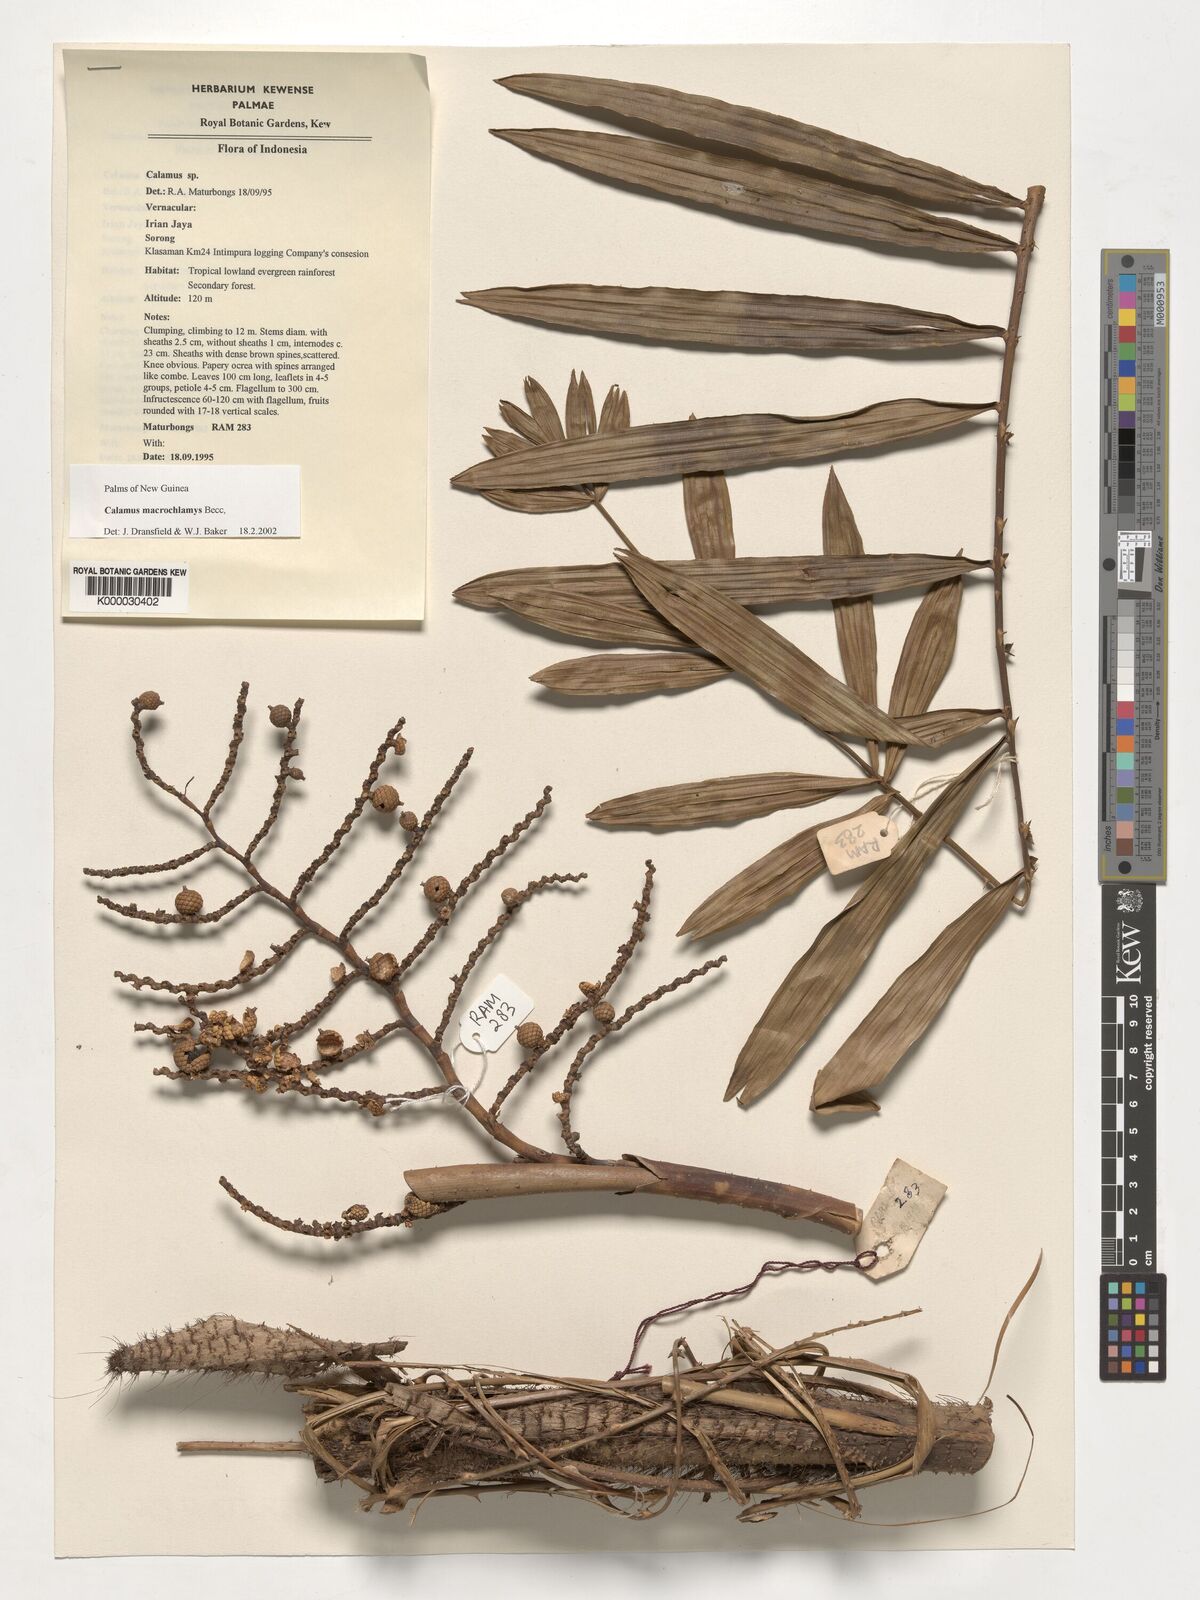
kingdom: Plantae
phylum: Tracheophyta
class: Liliopsida
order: Arecales
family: Arecaceae
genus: Calamus
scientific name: Calamus macrochlamys
